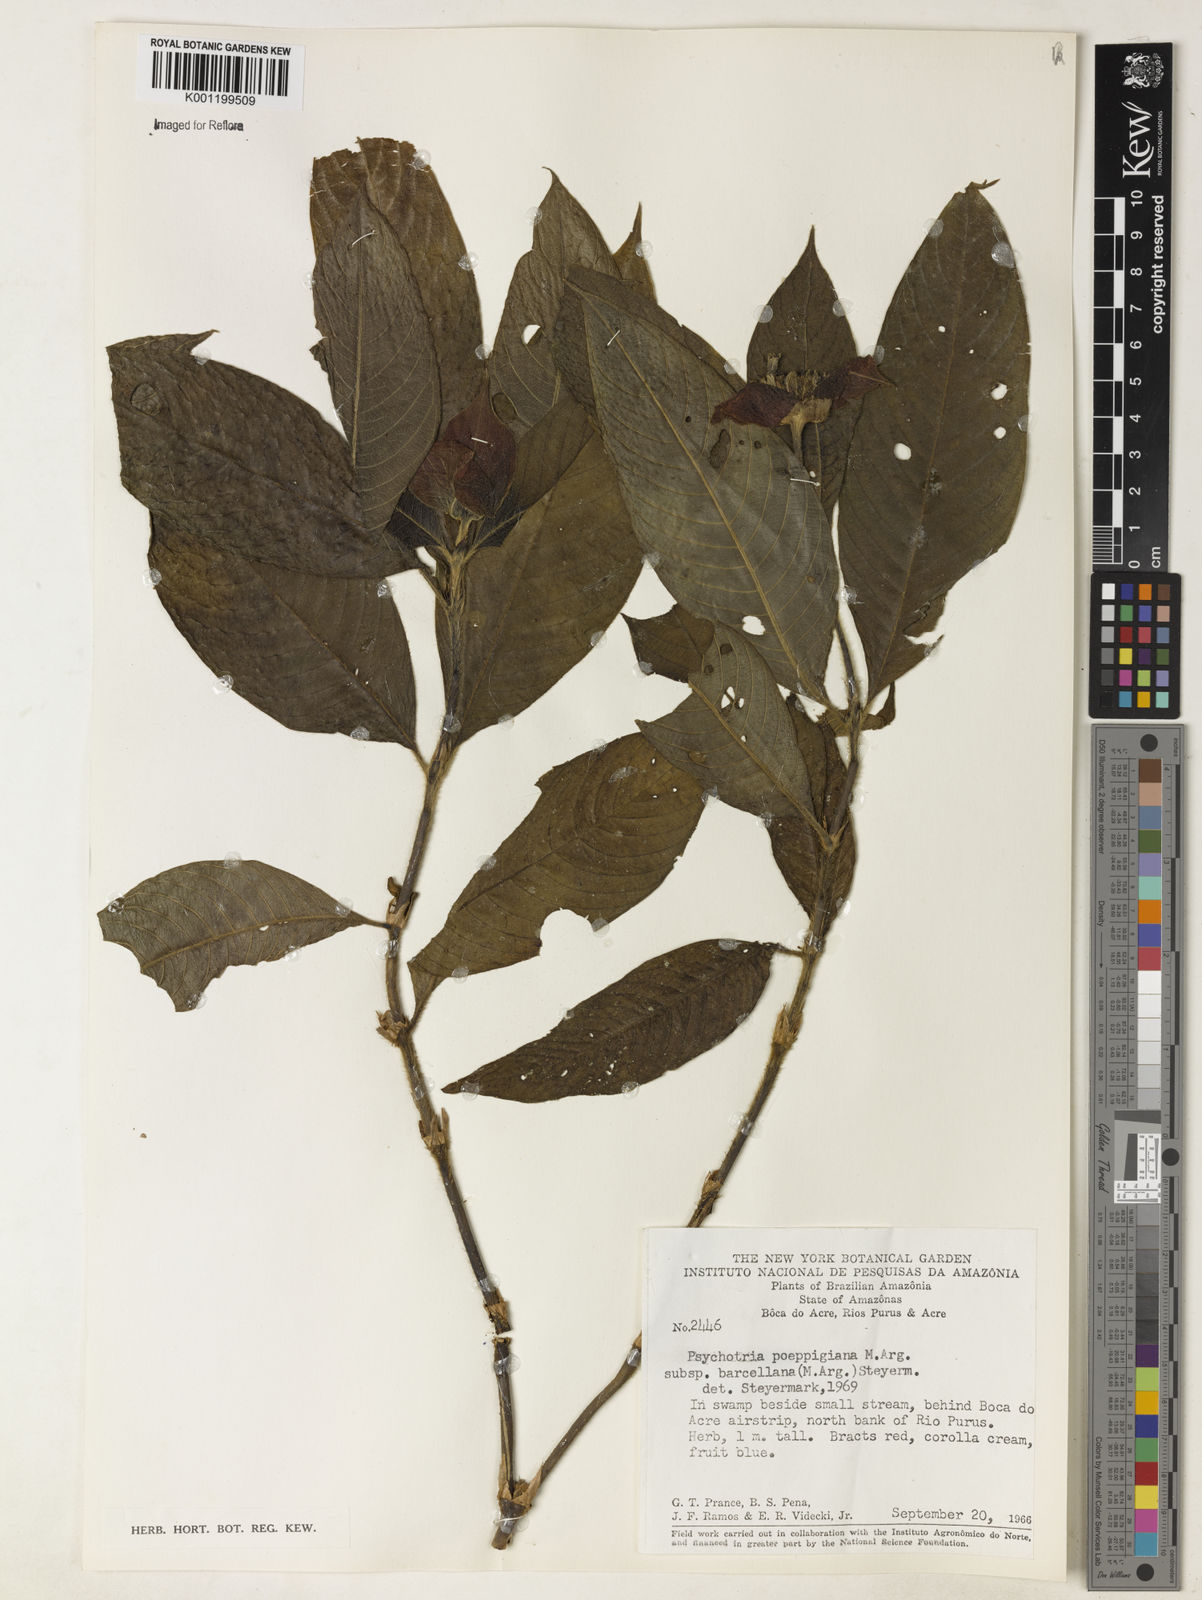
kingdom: Plantae
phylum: Tracheophyta
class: Magnoliopsida
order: Gentianales
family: Rubiaceae
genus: Psychotria
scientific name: Psychotria
